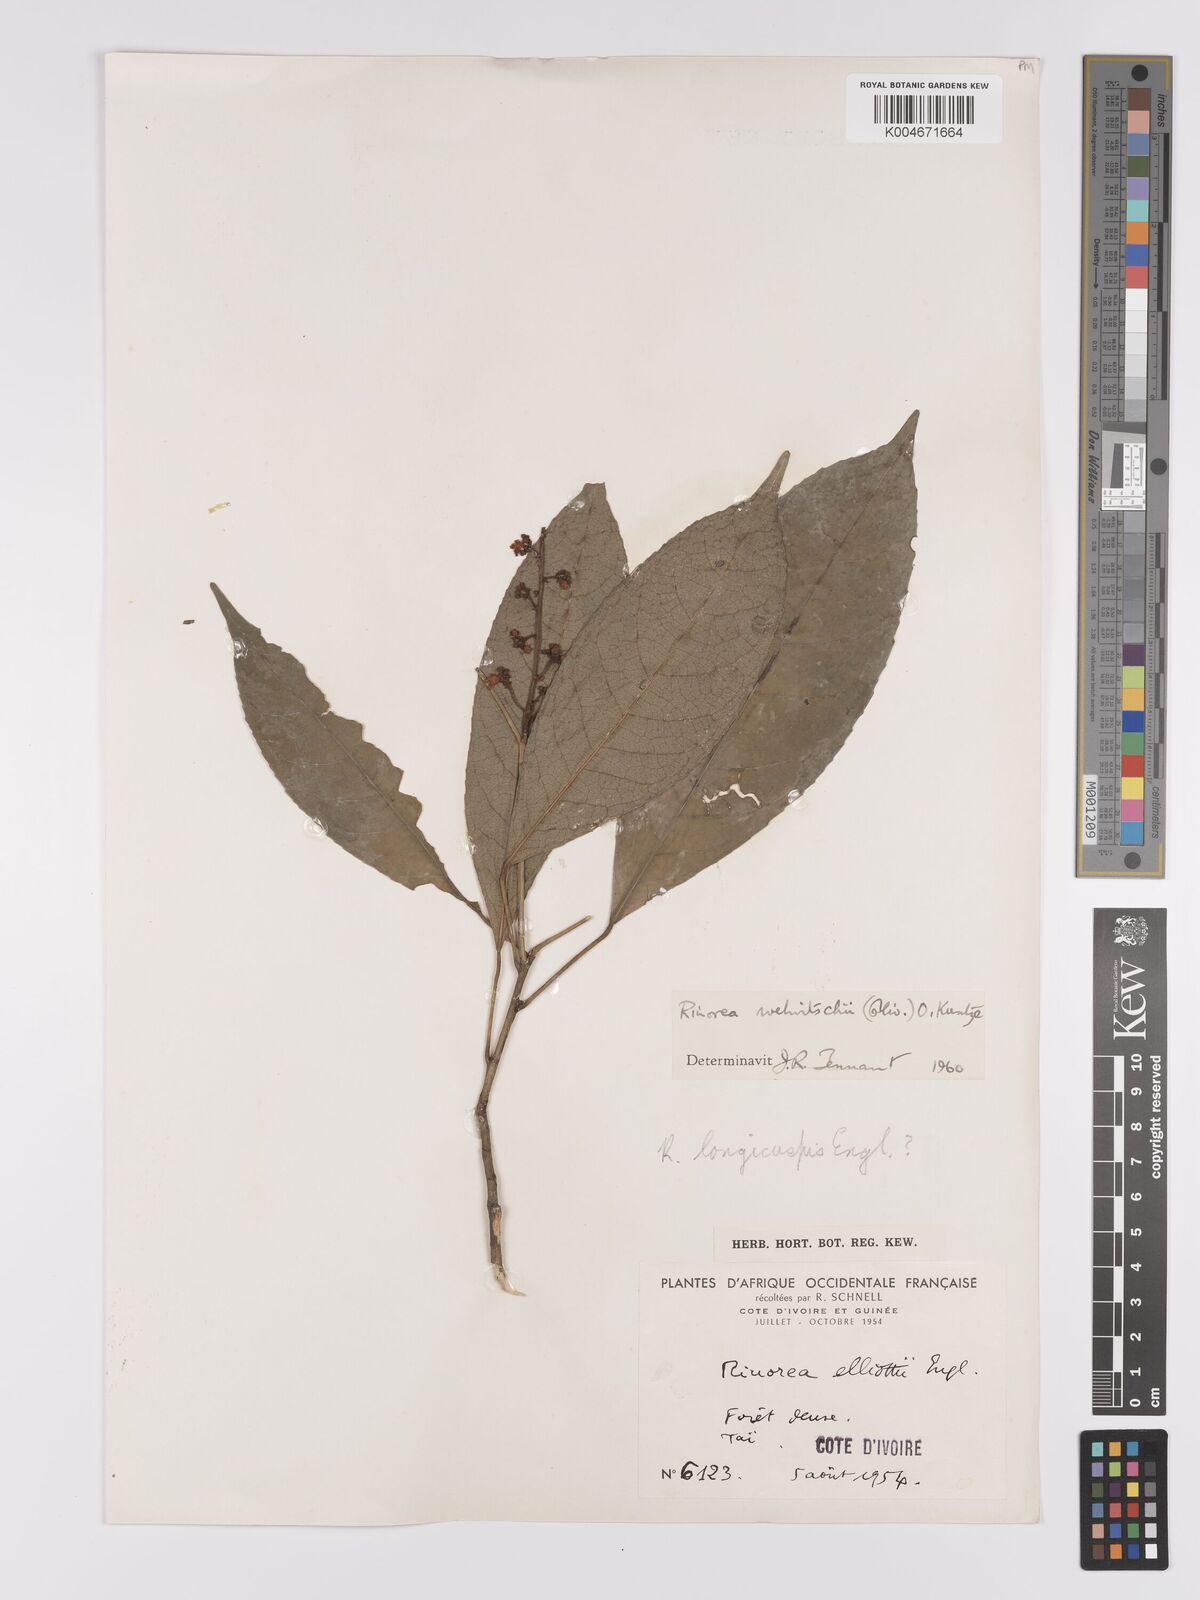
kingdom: Plantae
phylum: Tracheophyta
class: Magnoliopsida
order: Malpighiales
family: Violaceae
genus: Rinorea
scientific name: Rinorea welwitschii
